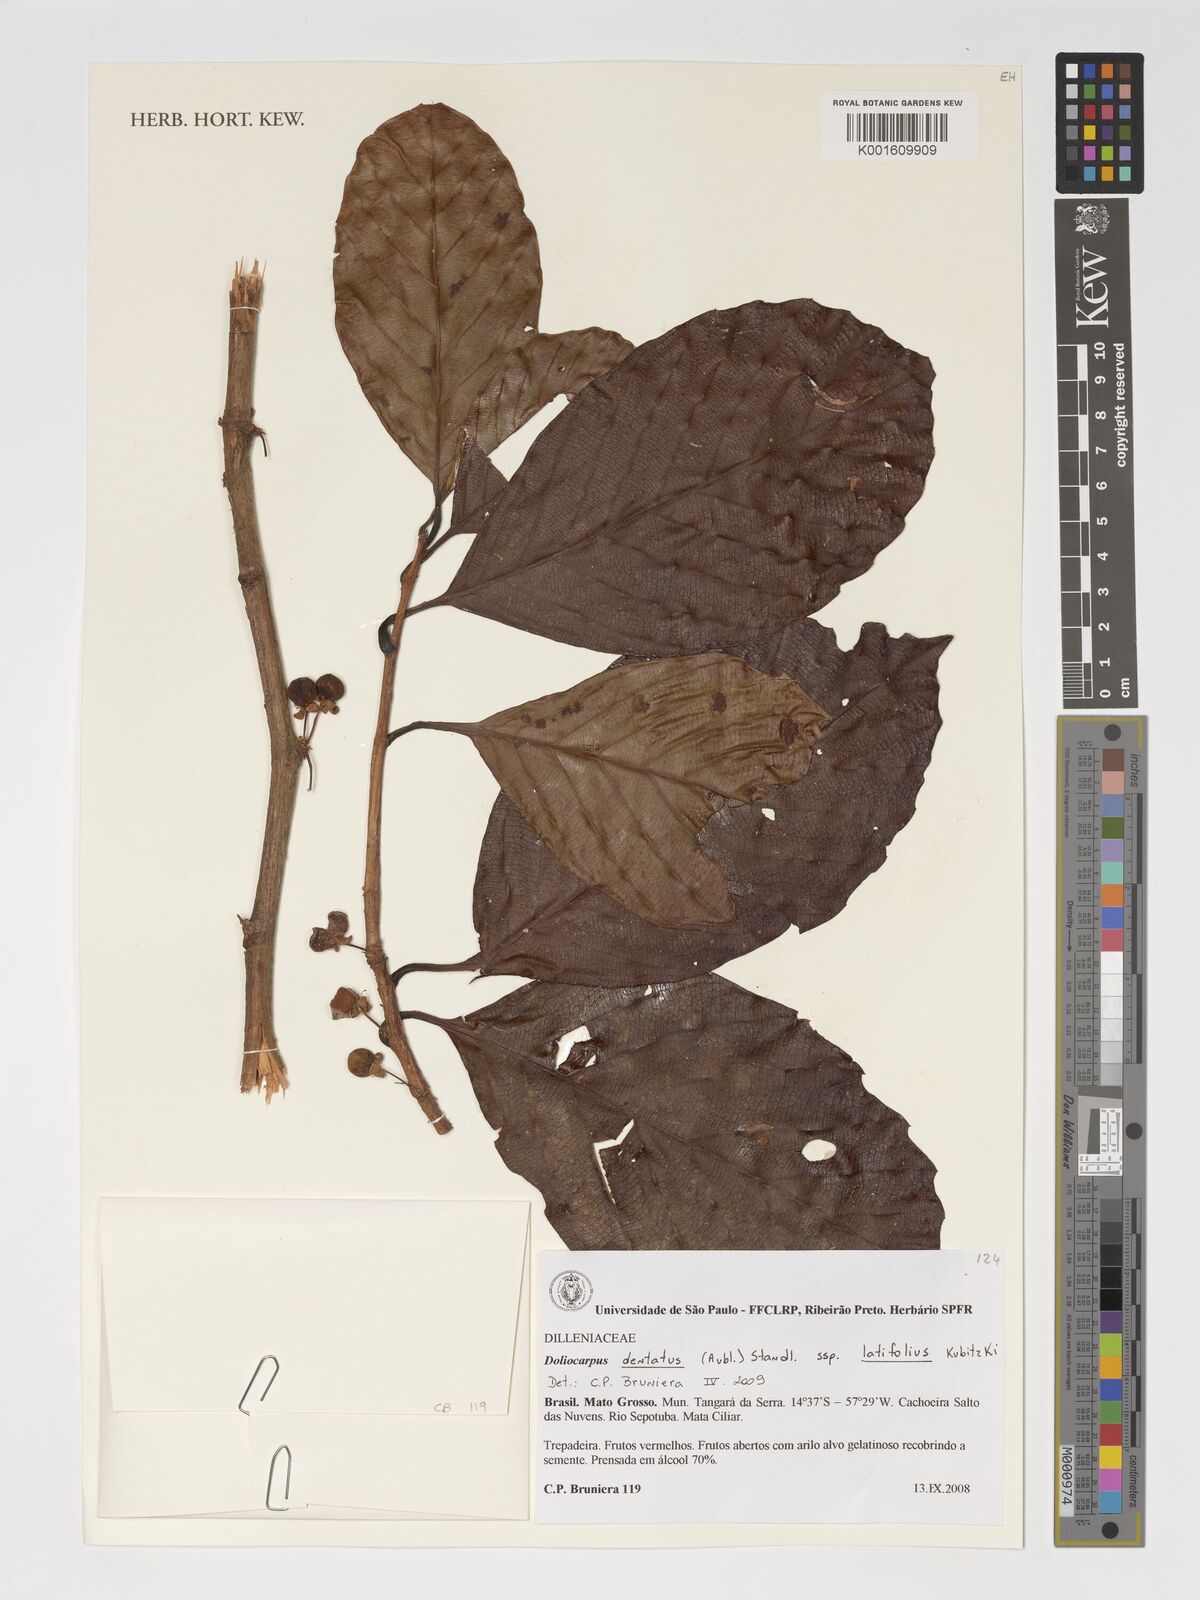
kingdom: Plantae
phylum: Tracheophyta
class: Magnoliopsida
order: Dilleniales
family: Dilleniaceae
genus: Doliocarpus
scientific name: Doliocarpus dentatus
